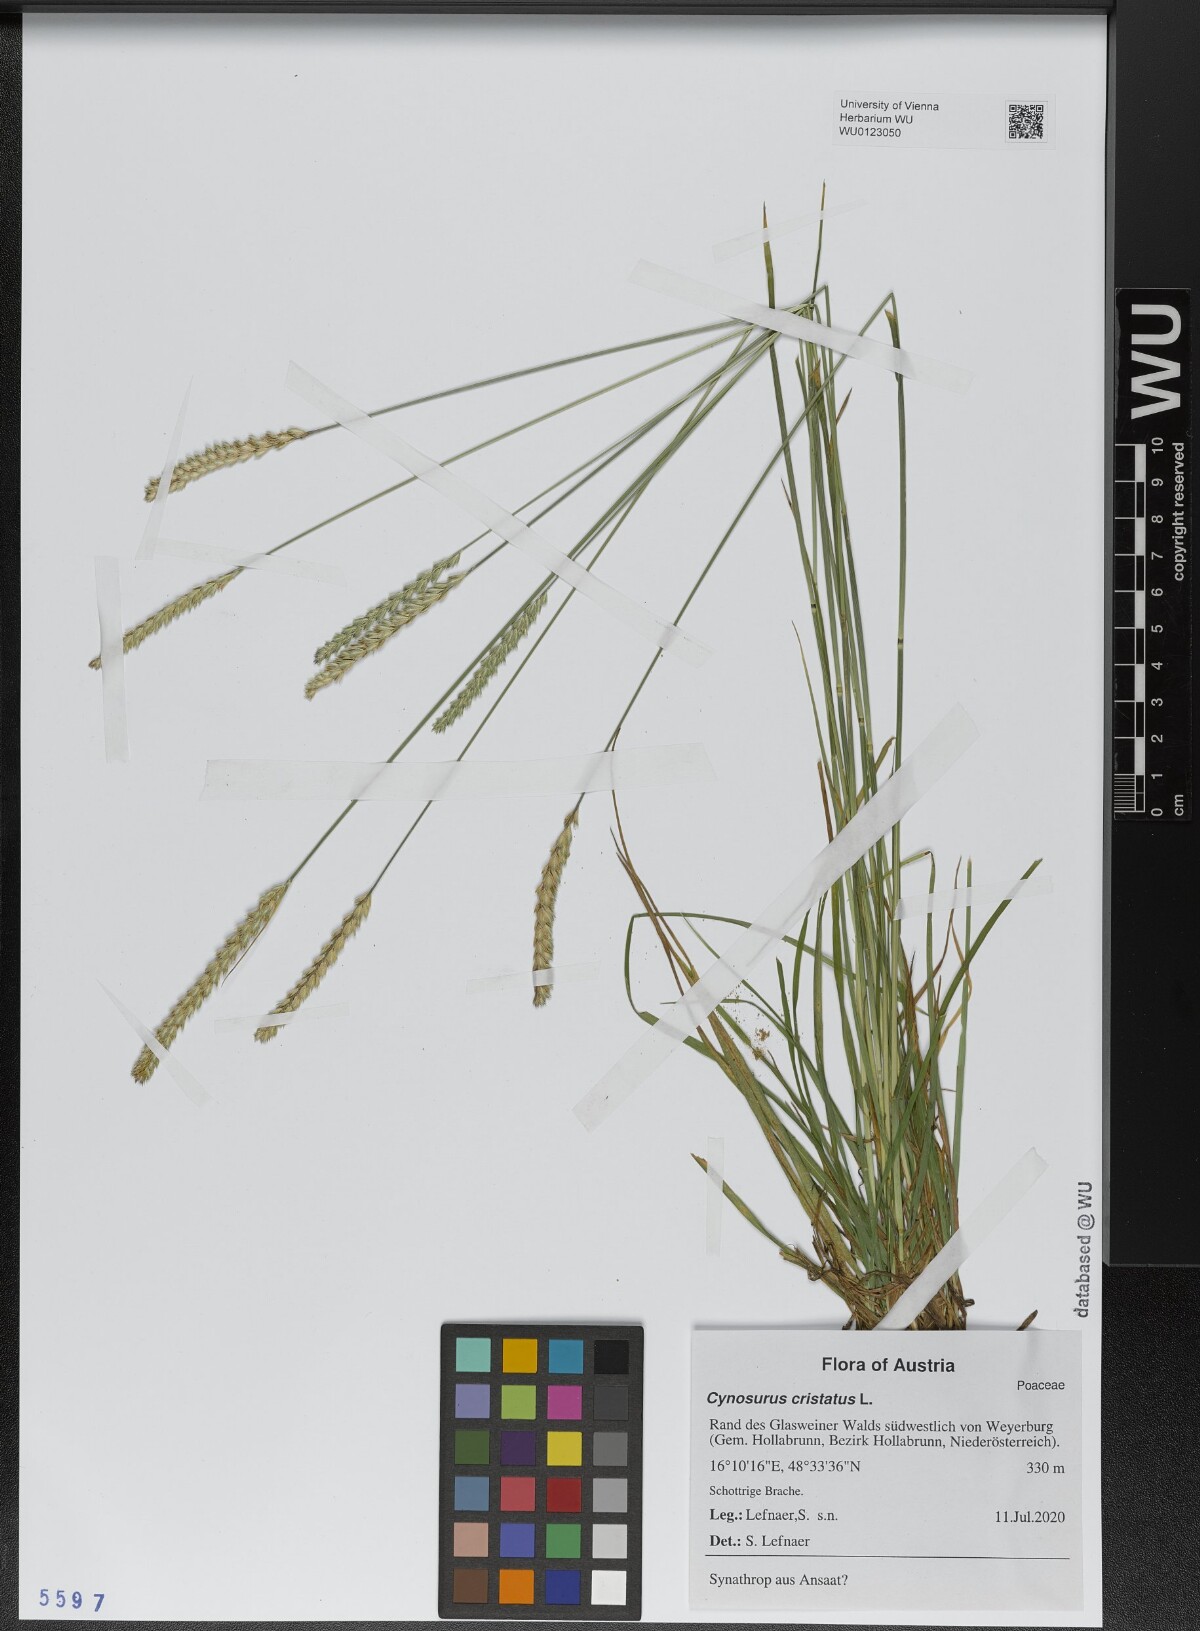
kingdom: Plantae
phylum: Tracheophyta
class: Liliopsida
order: Poales
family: Poaceae
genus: Cynosurus
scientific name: Cynosurus cristatus
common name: Crested dog's-tail
